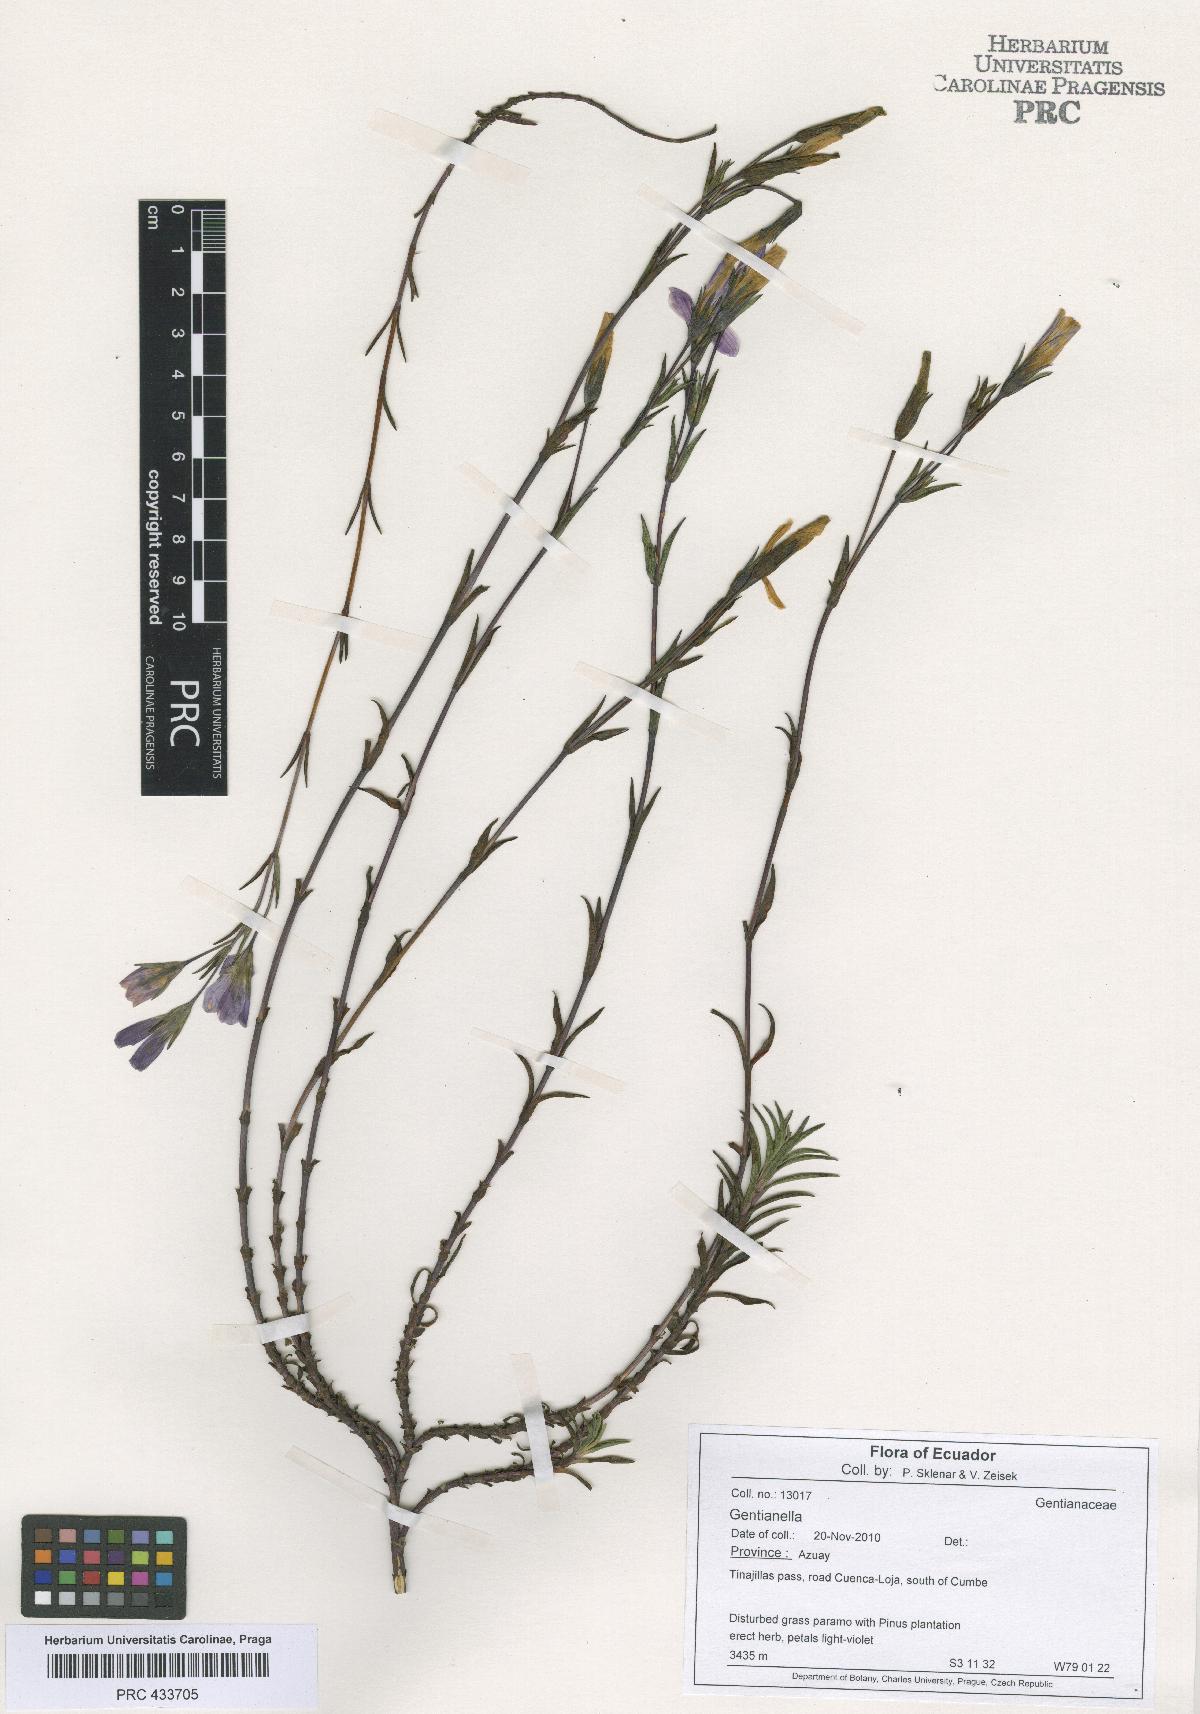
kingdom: Plantae
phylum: Tracheophyta
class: Magnoliopsida
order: Gentianales
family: Gentianaceae
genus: Gentianella
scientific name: Gentianella
